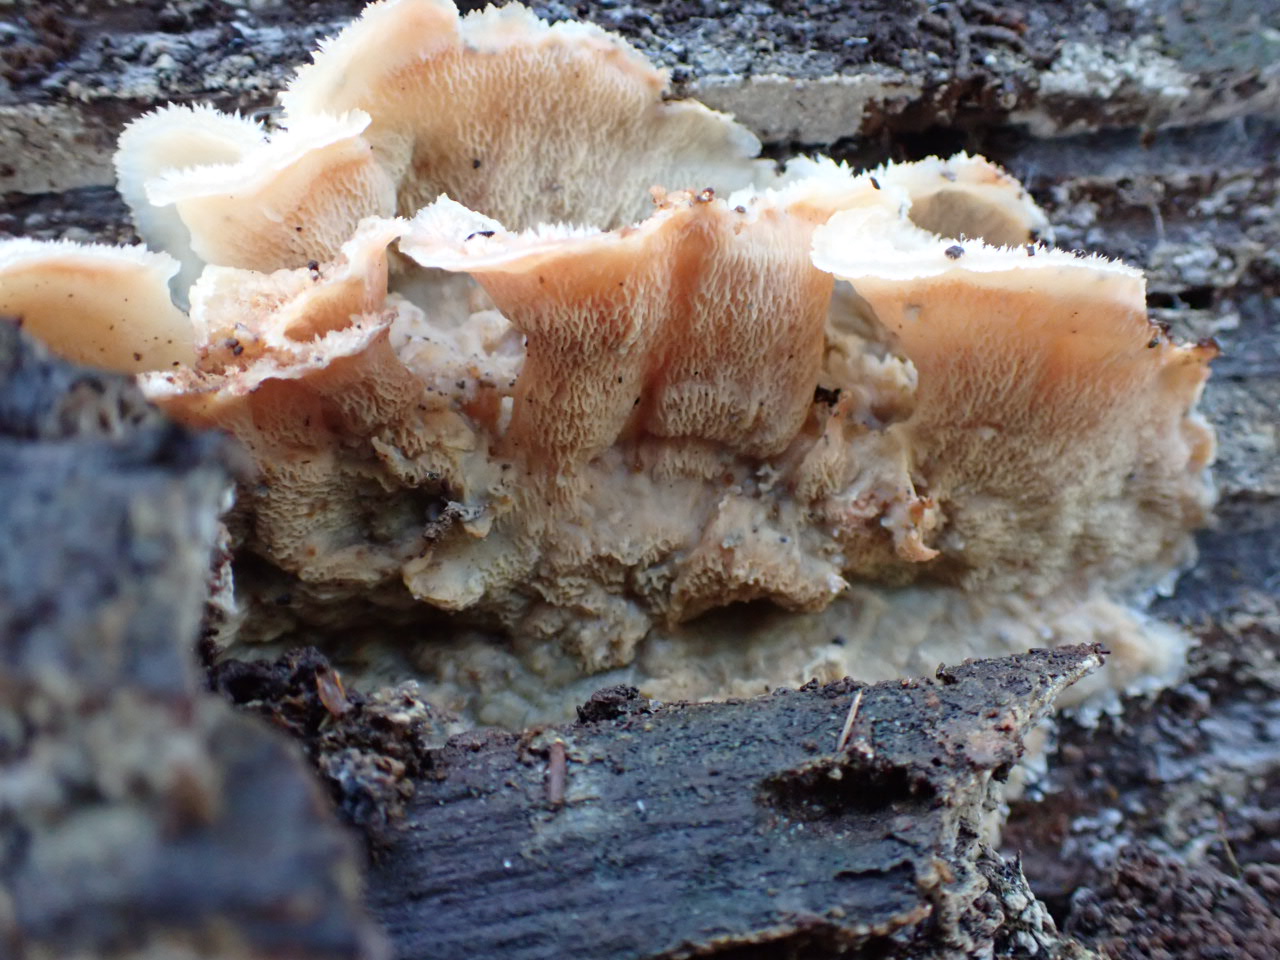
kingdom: Fungi
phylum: Basidiomycota
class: Agaricomycetes
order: Polyporales
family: Meruliaceae
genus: Phlebia
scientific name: Phlebia tremellosa
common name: bævrende åresvamp
